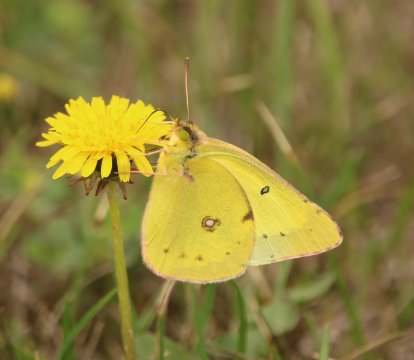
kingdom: Animalia
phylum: Arthropoda
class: Insecta
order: Lepidoptera
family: Pieridae
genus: Colias
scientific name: Colias philodice
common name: Clouded Sulphur
